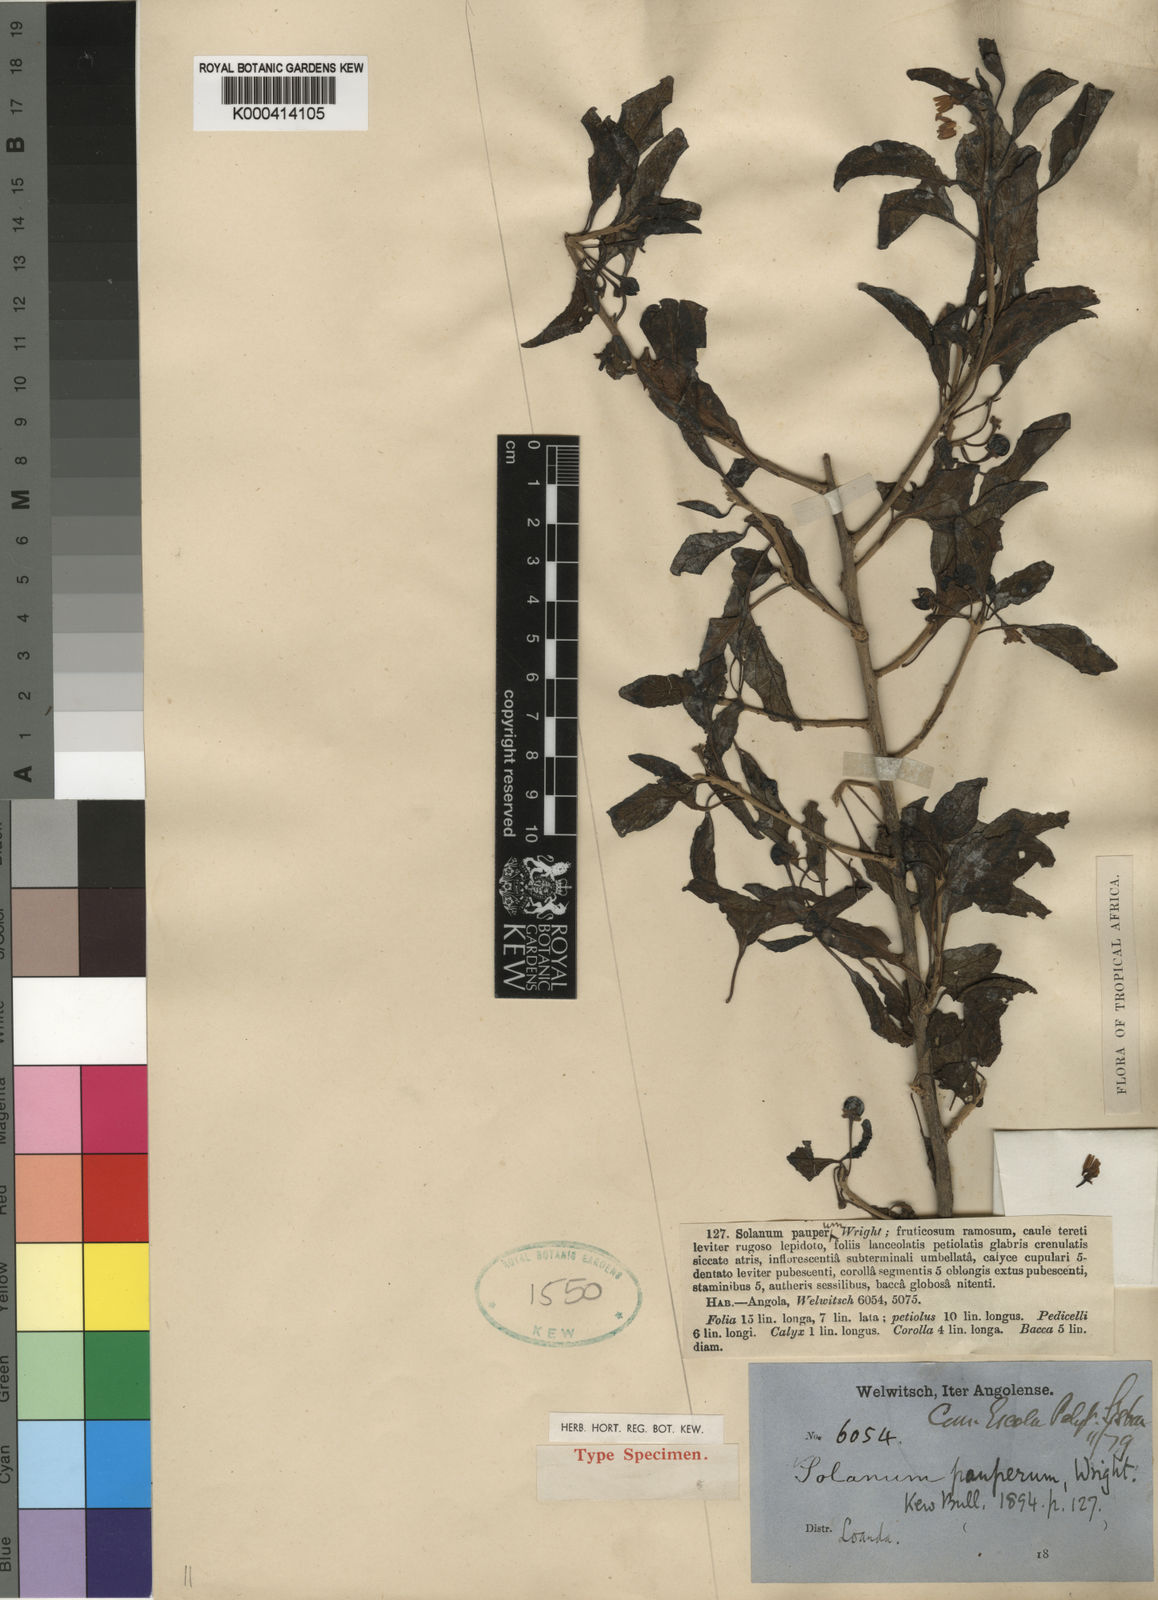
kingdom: Plantae
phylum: Tracheophyta
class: Magnoliopsida
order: Solanales
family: Solanaceae
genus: Solanum
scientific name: Solanum anomalum
